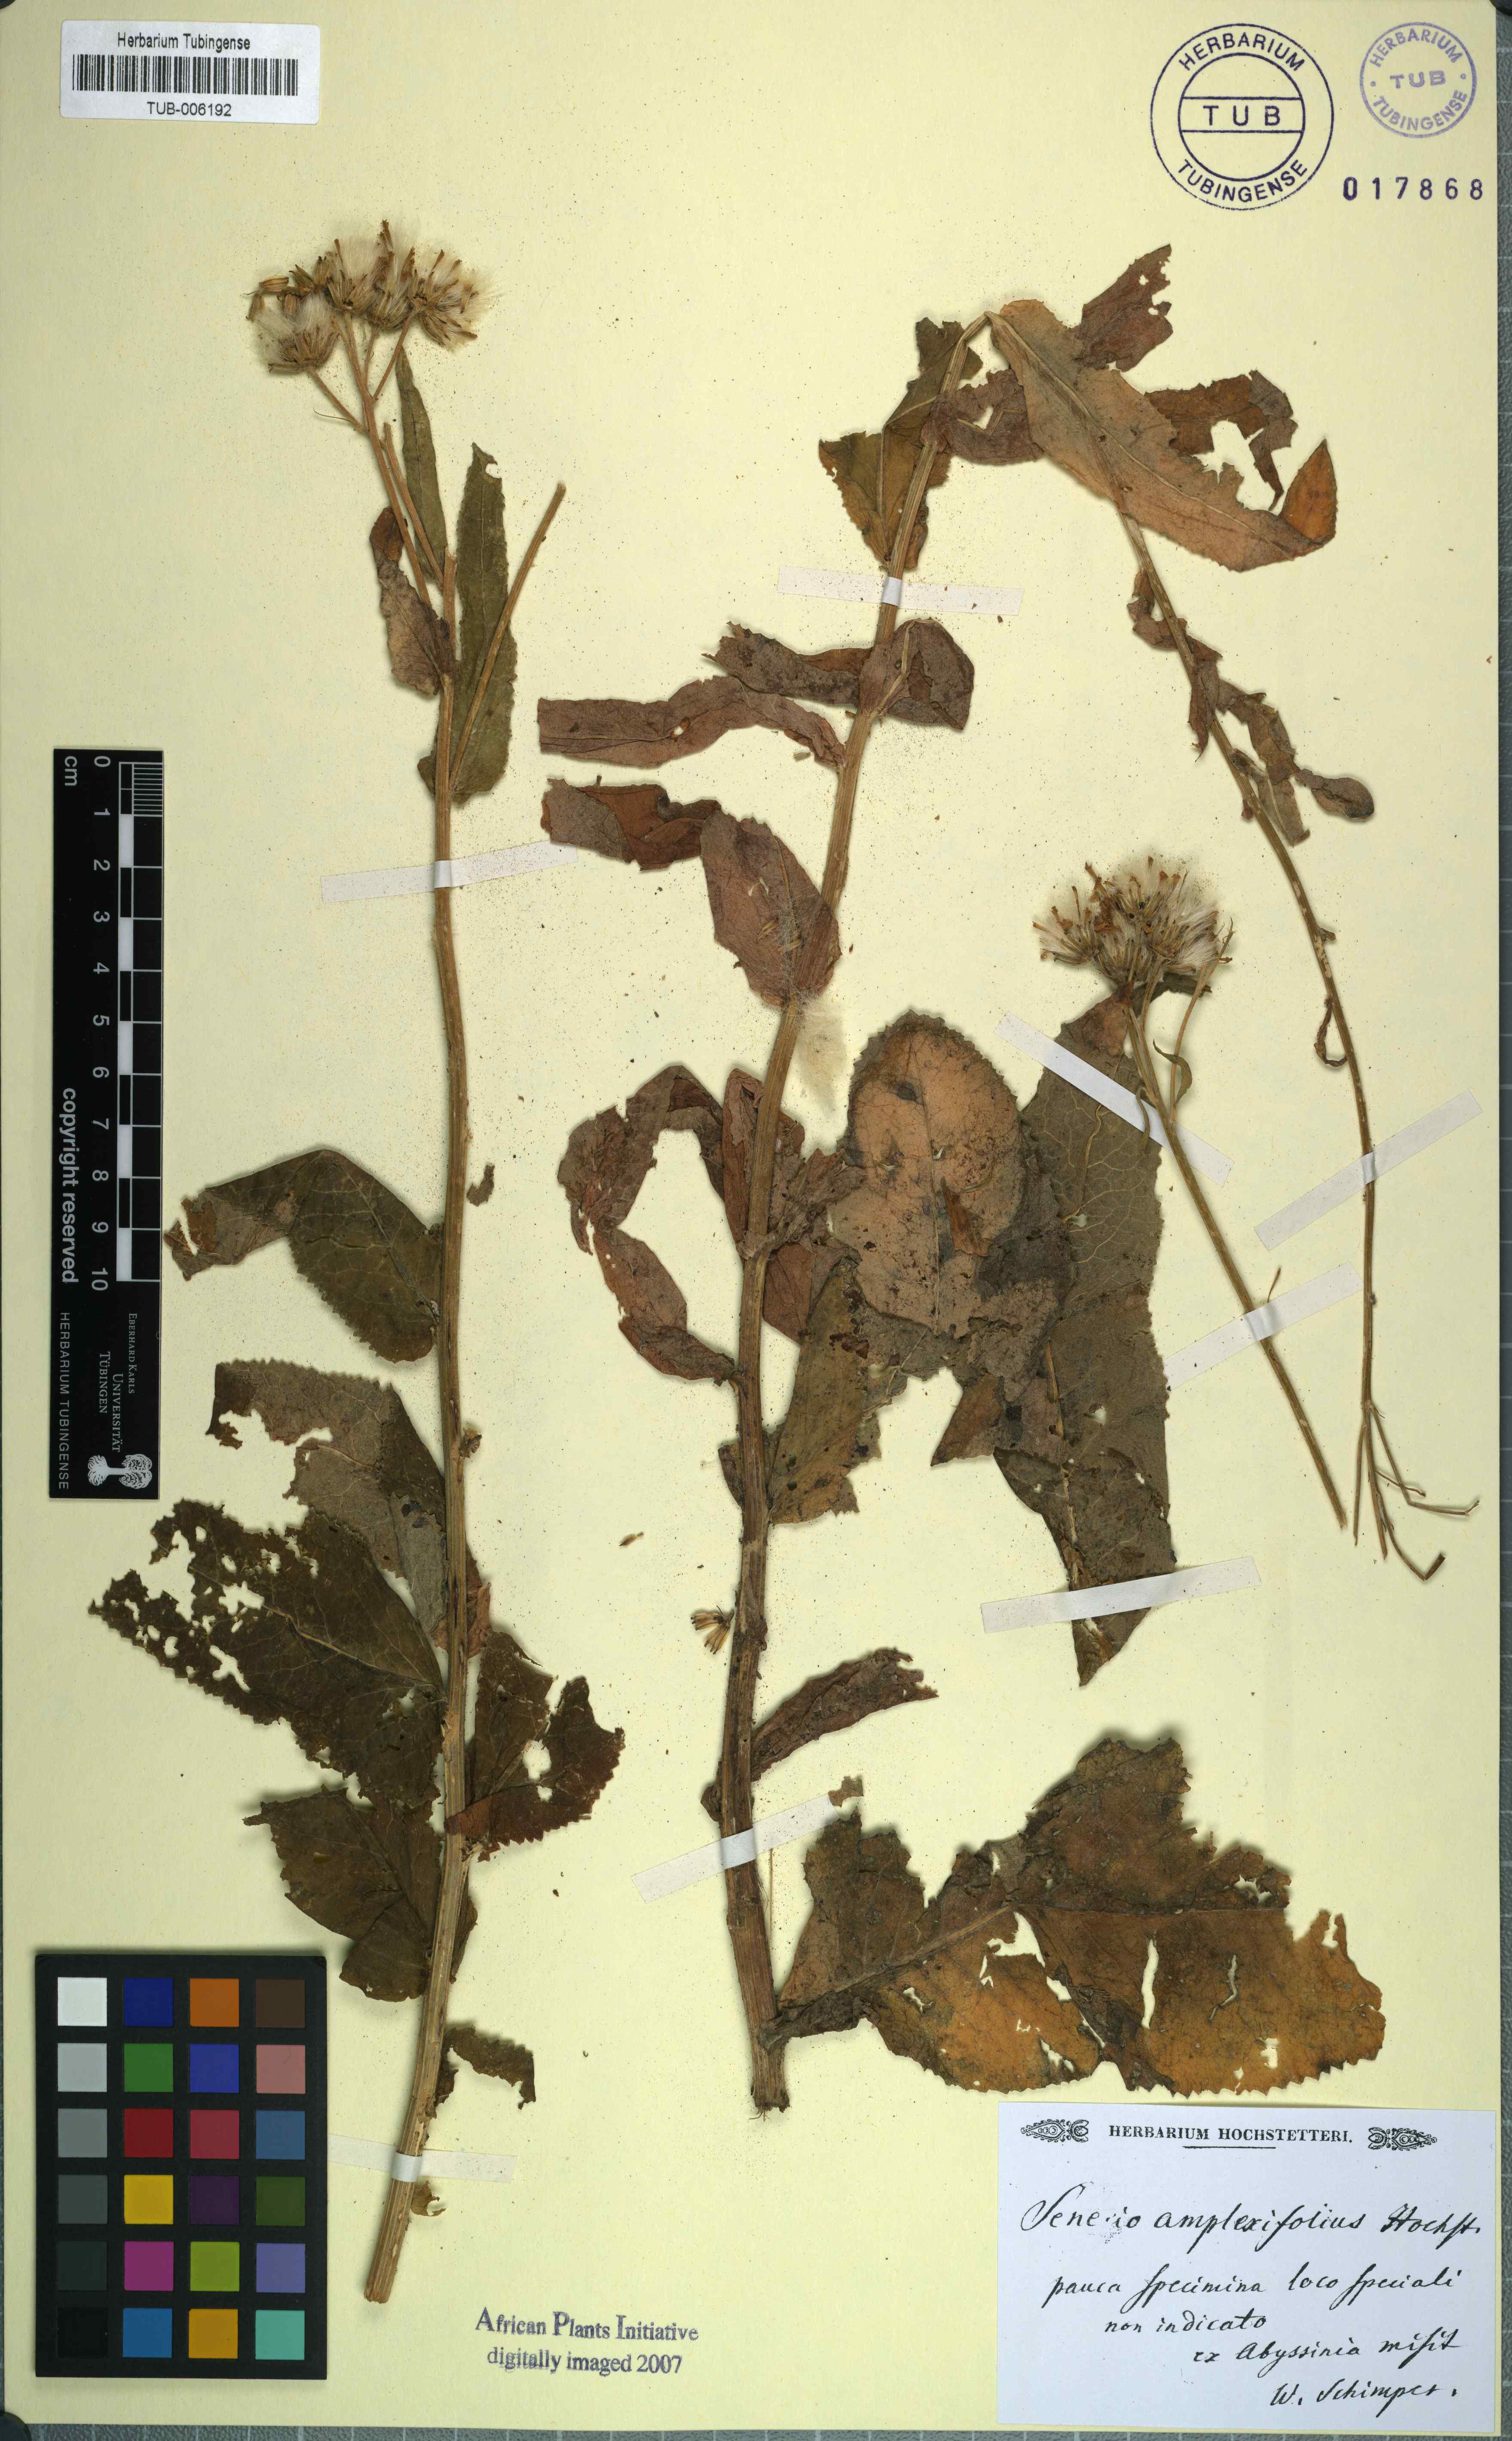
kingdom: Plantae
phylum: Tracheophyta
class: Magnoliopsida
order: Asterales
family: Asteraceae
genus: Humbertacalia
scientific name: Humbertacalia amplexifolia
